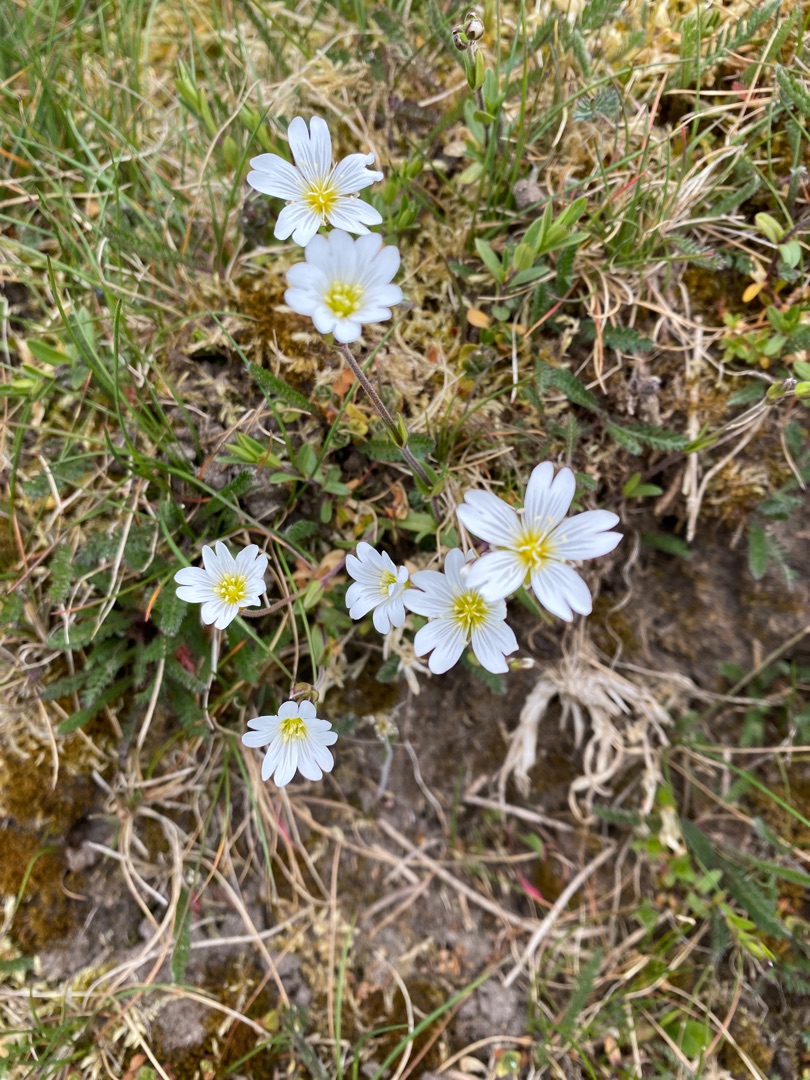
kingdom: Plantae
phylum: Tracheophyta
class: Magnoliopsida
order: Caryophyllales
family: Caryophyllaceae
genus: Cerastium
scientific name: Cerastium arvense
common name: Storblomstret hønsetarm
